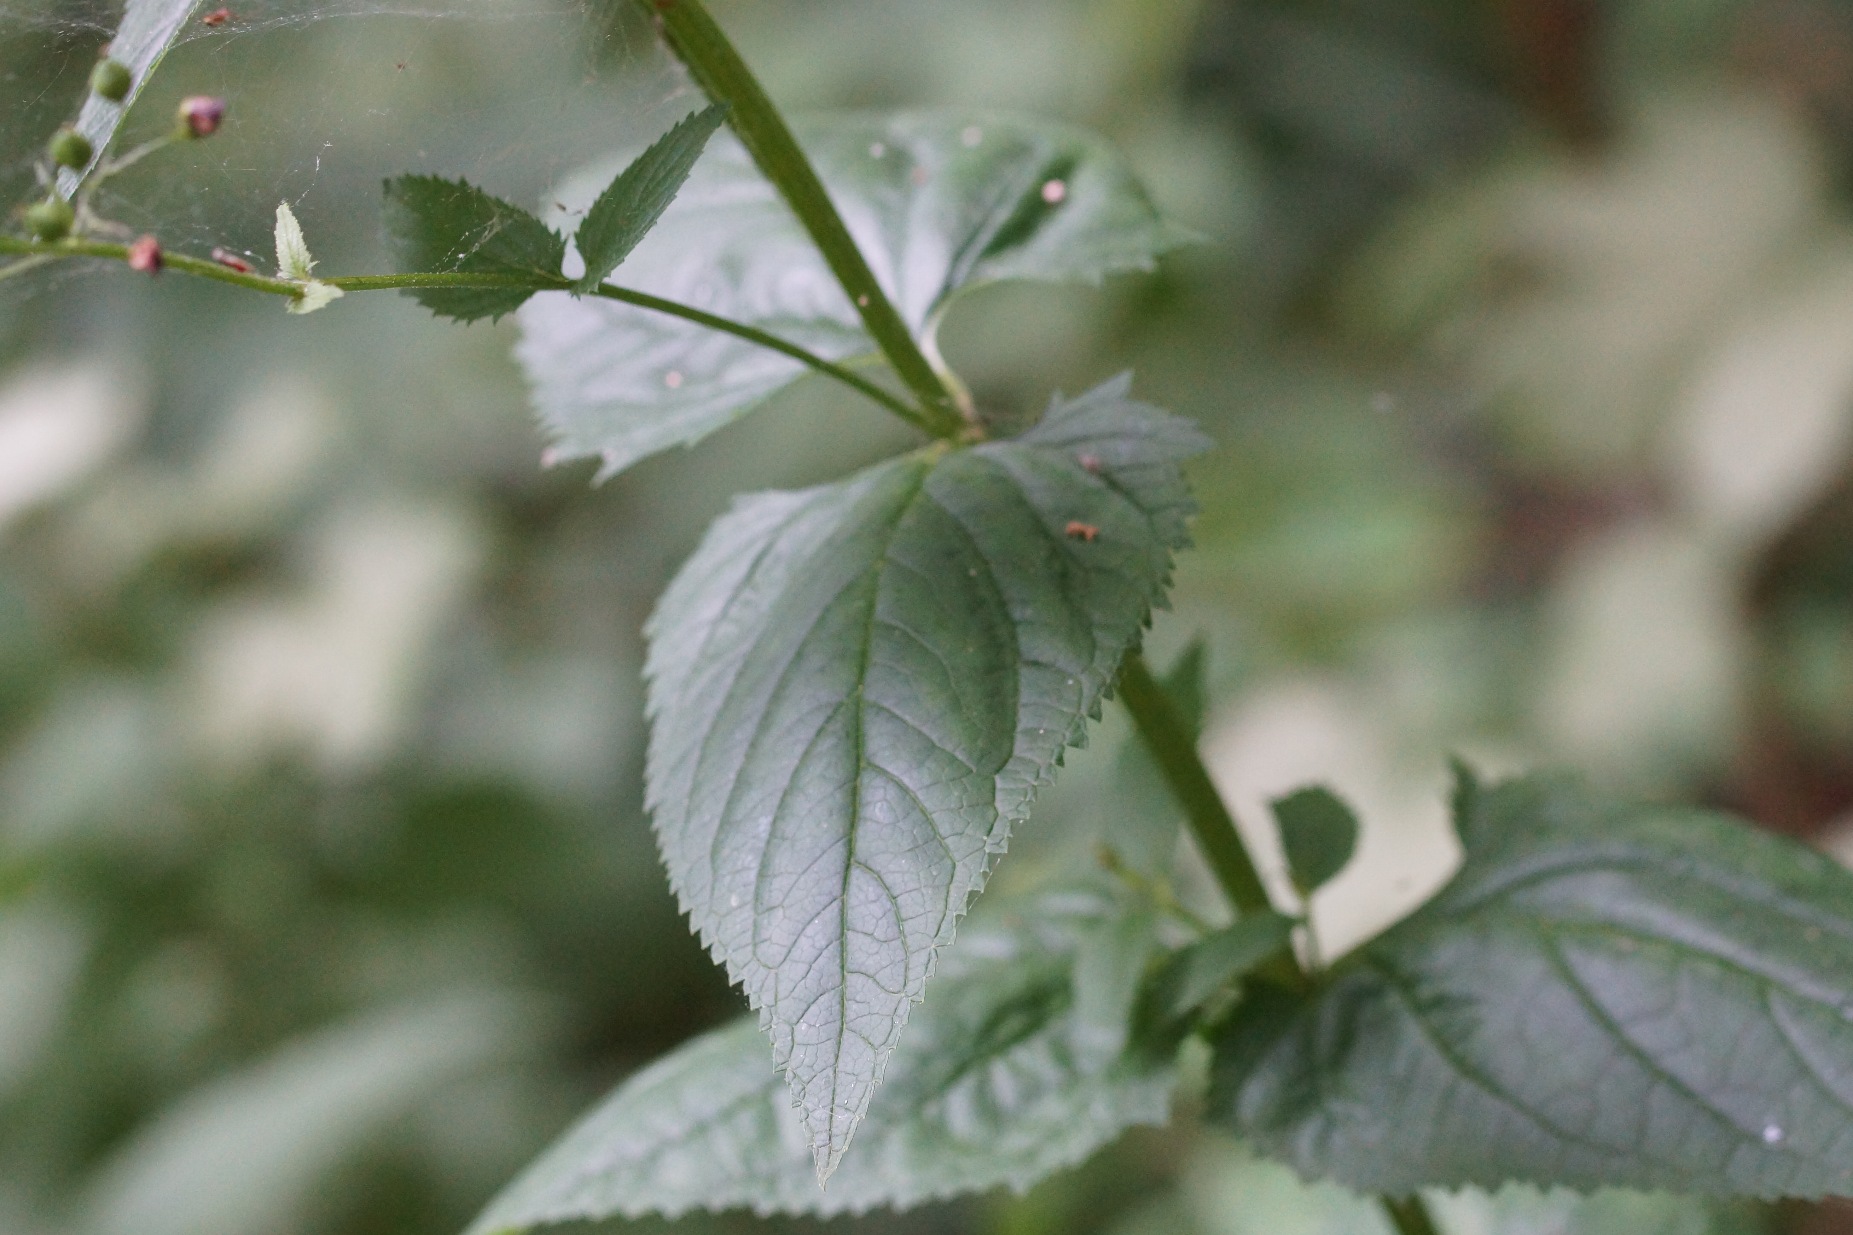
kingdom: Plantae
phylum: Tracheophyta
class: Magnoliopsida
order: Lamiales
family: Scrophulariaceae
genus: Scrophularia
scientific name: Scrophularia nodosa
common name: Knoldet brunrod
